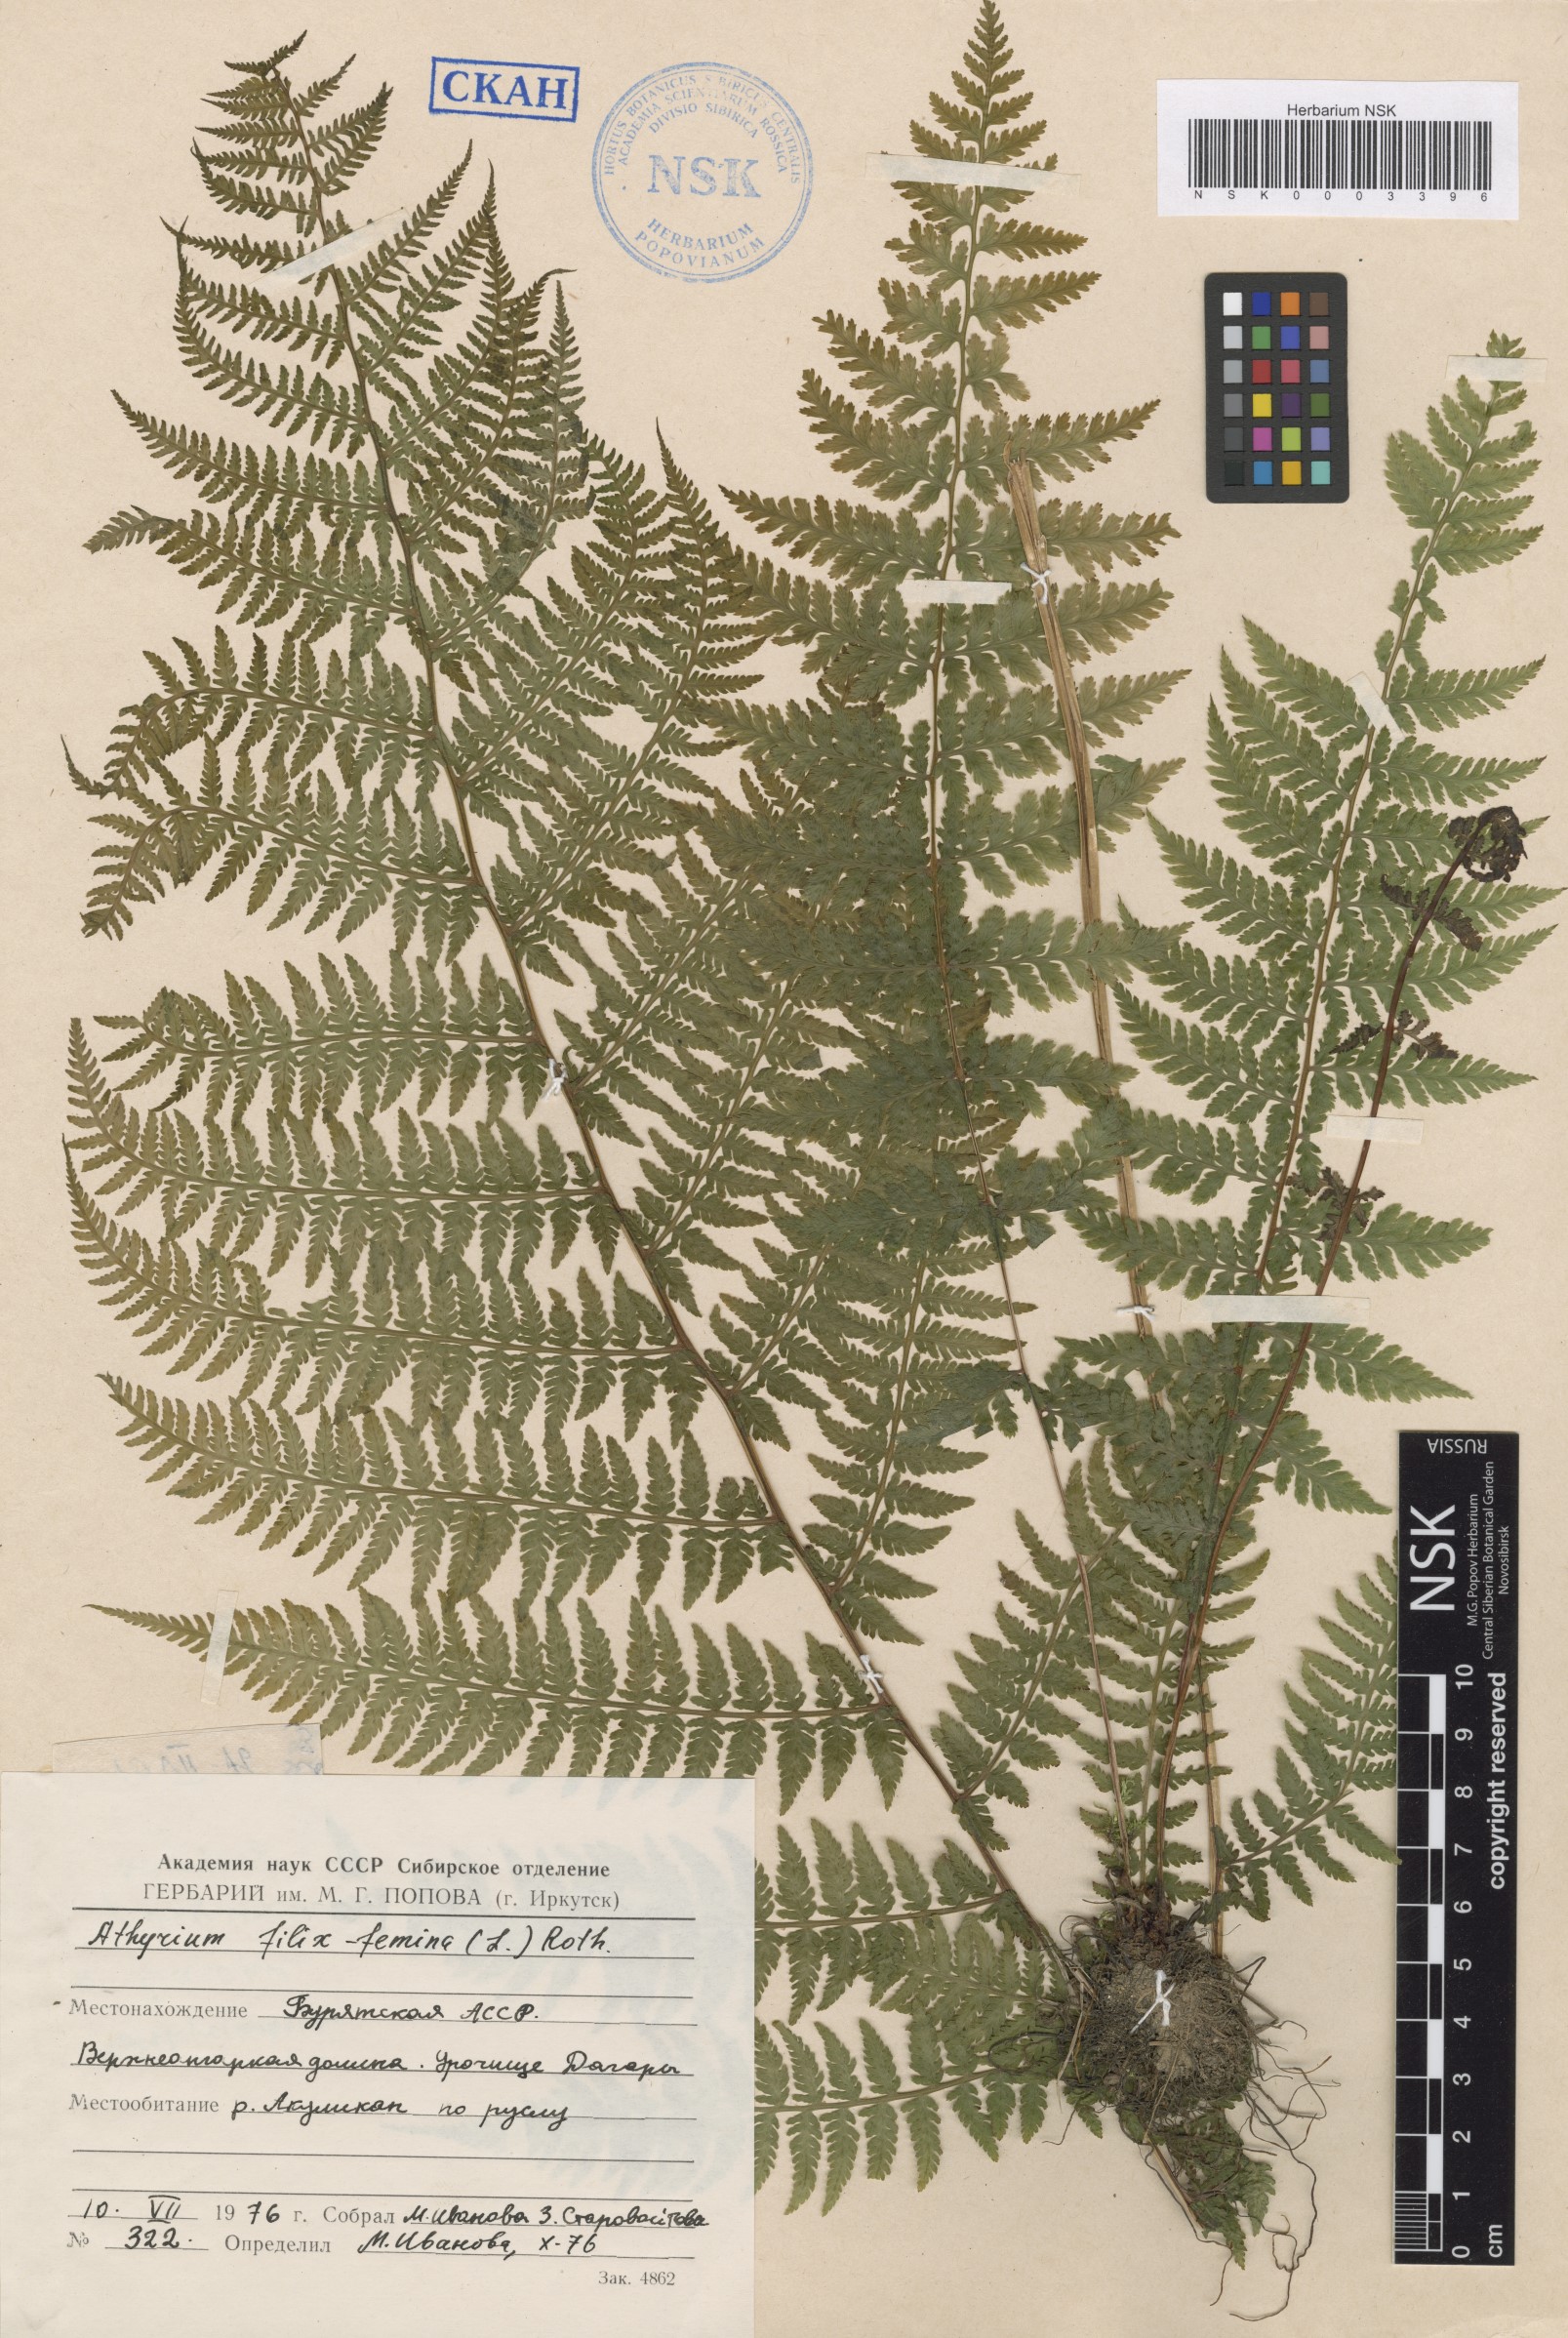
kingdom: Plantae
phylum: Tracheophyta
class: Polypodiopsida
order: Polypodiales
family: Athyriaceae
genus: Athyrium
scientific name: Athyrium filix-femina
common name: Lady fern
